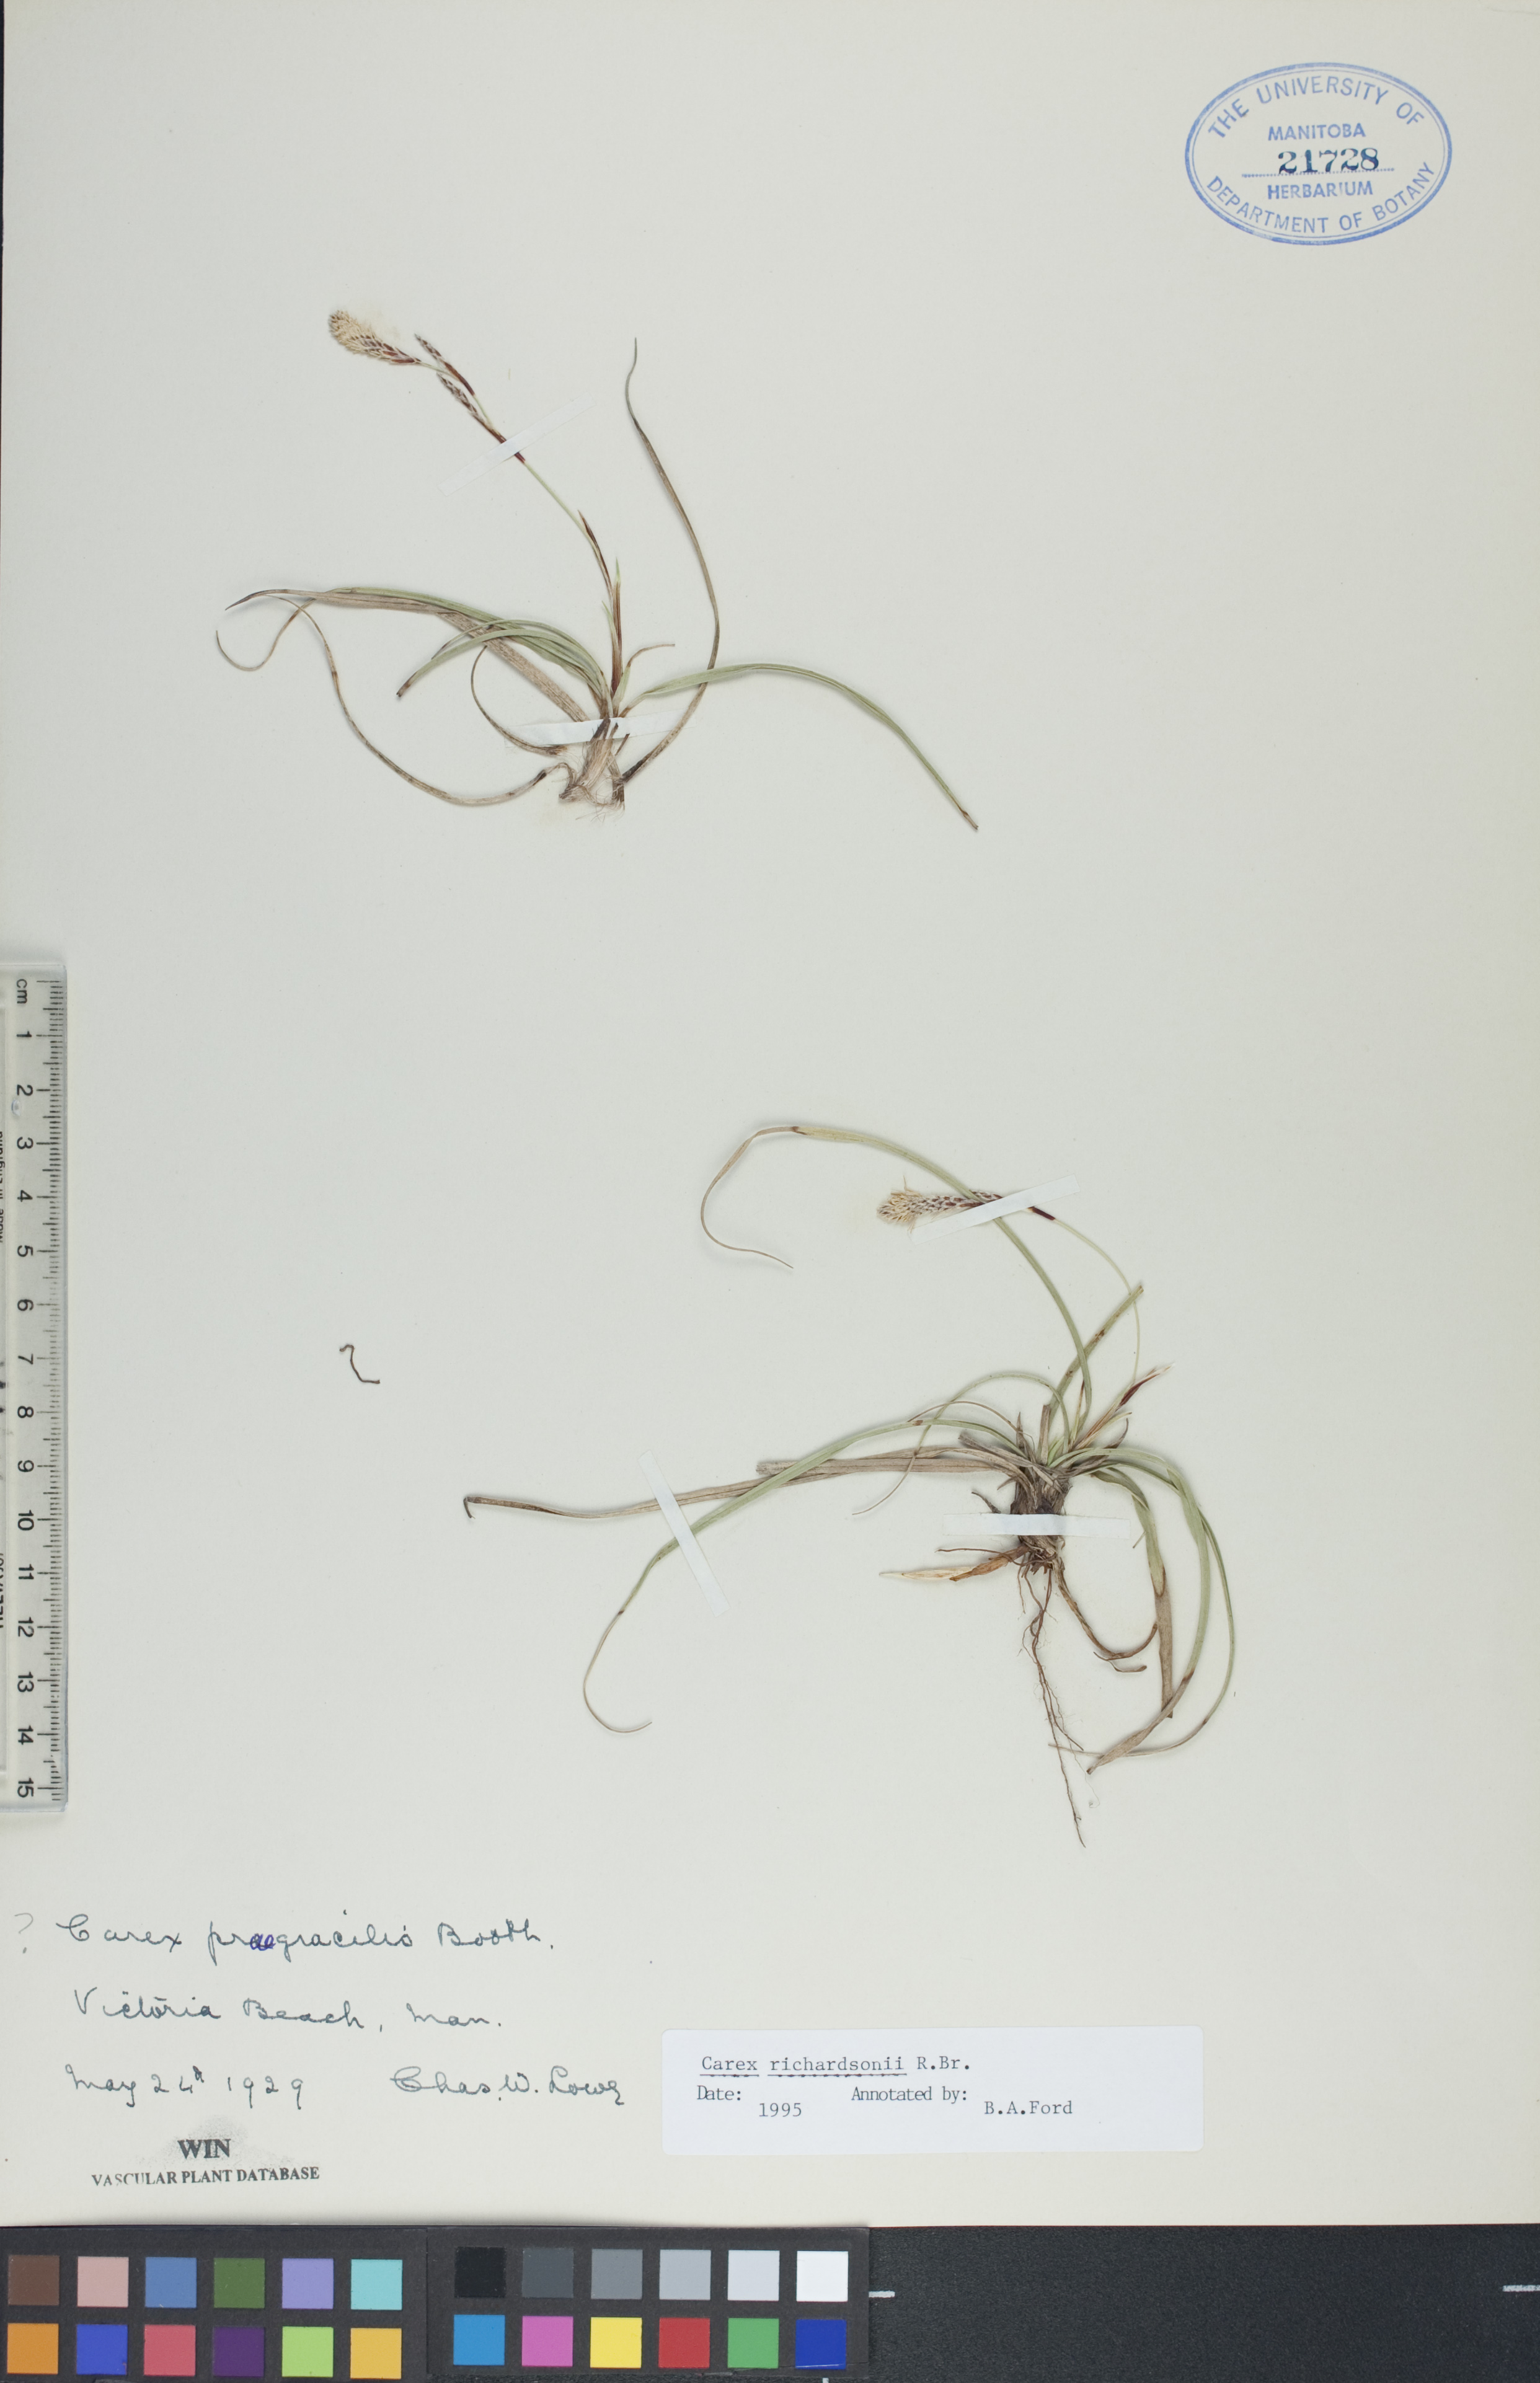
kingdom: Plantae
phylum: Tracheophyta
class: Liliopsida
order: Poales
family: Cyperaceae
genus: Carex
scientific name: Carex richardsonii
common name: Prairie hummock sedge
